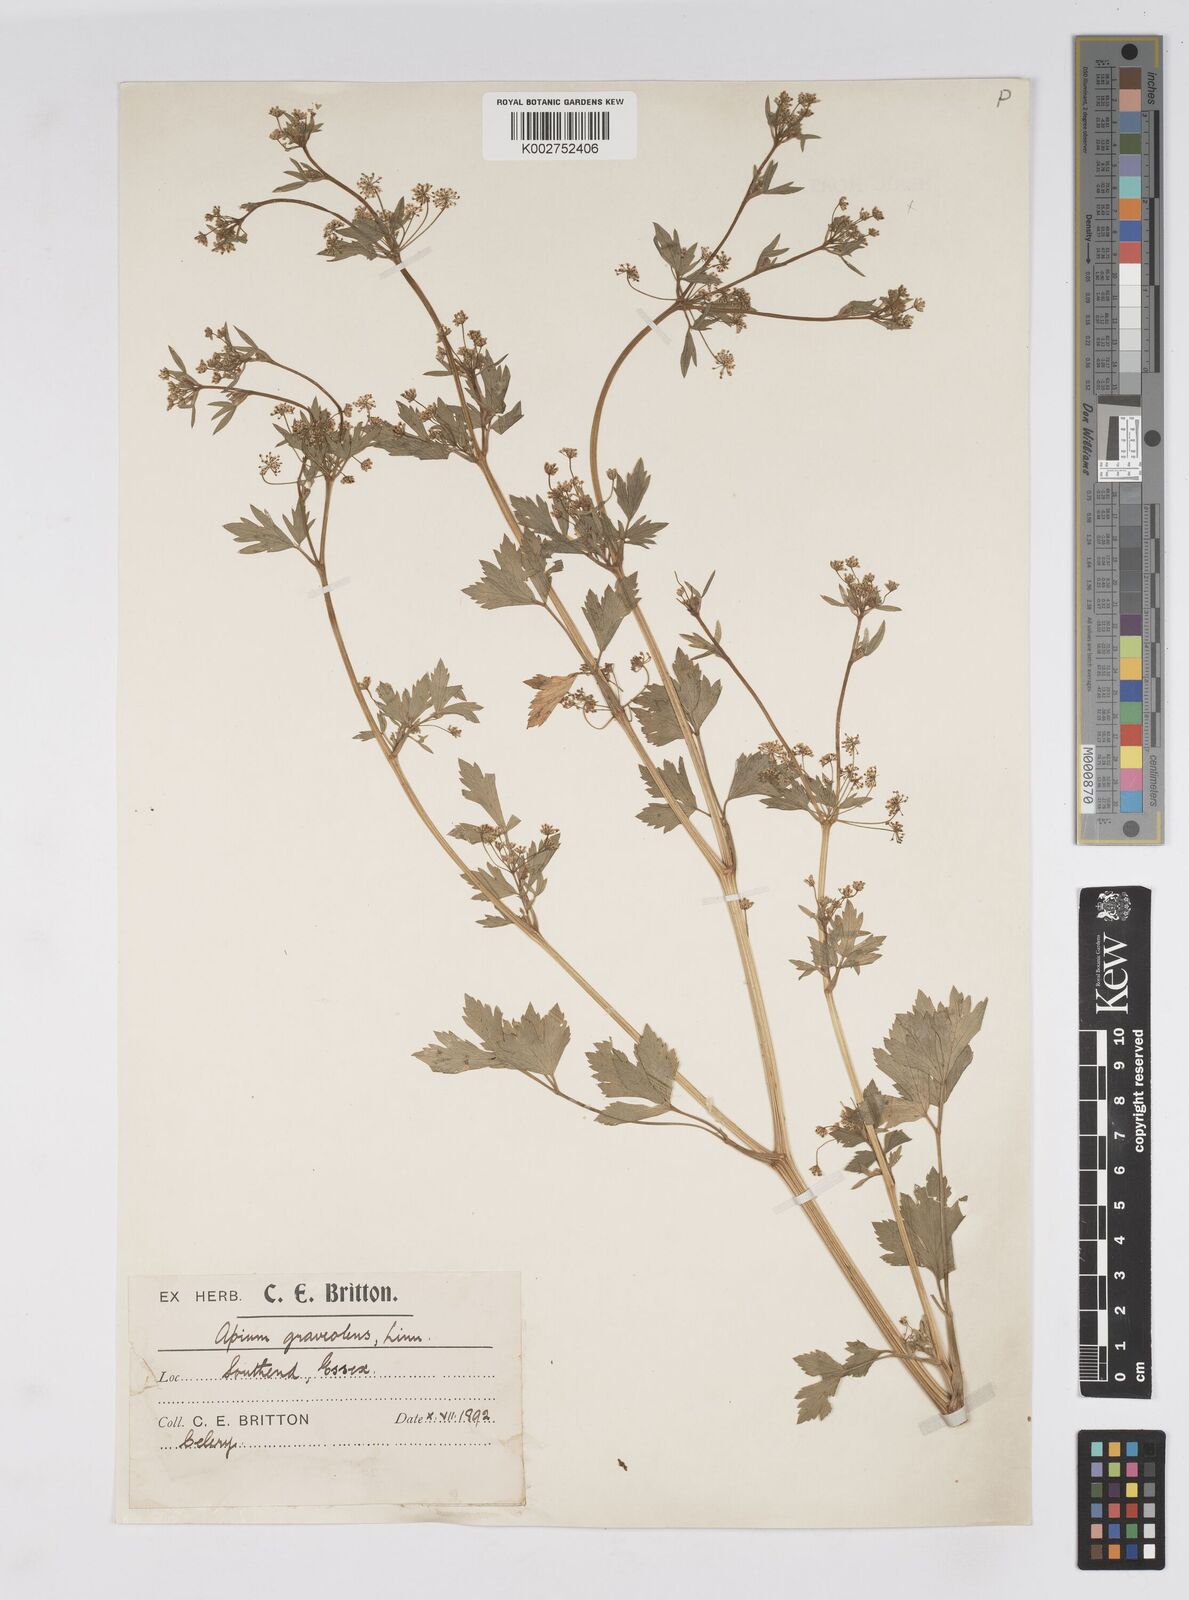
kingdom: Plantae
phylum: Tracheophyta
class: Magnoliopsida
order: Apiales
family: Apiaceae
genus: Apium
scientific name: Apium graveolens
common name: Wild celery
